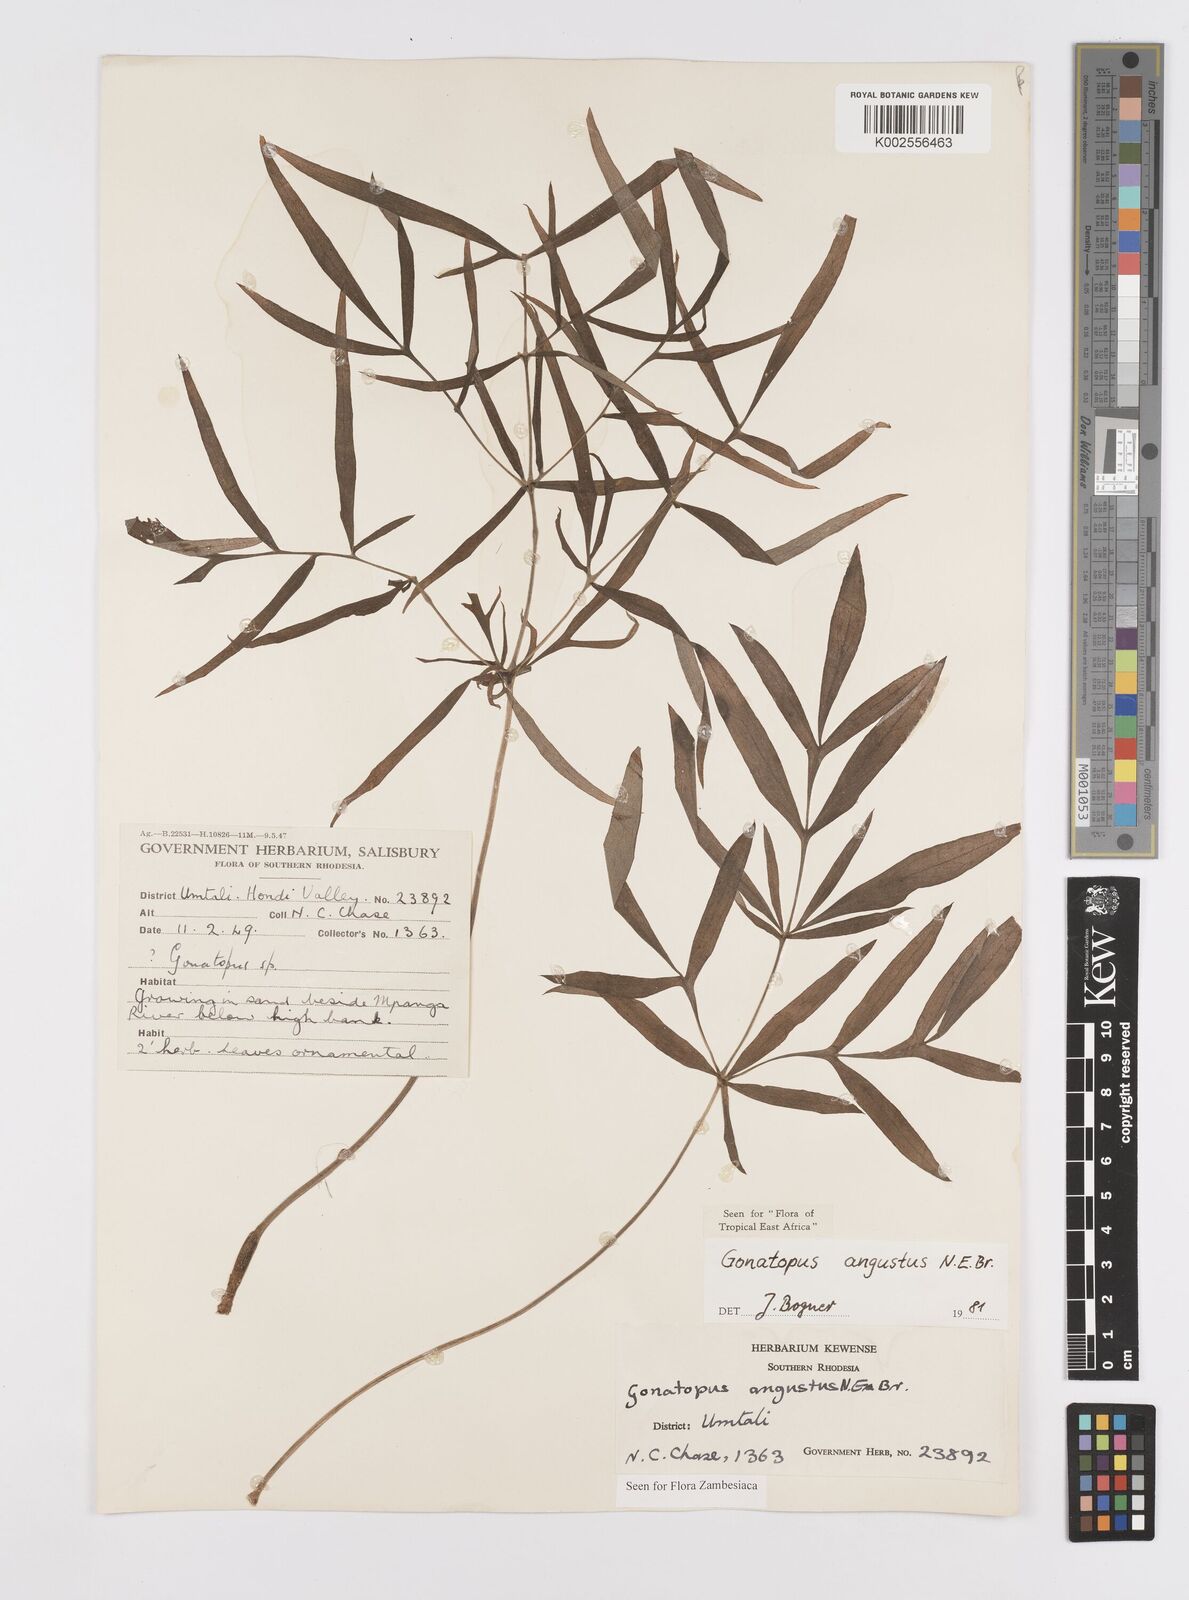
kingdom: Plantae
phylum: Tracheophyta
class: Liliopsida
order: Alismatales
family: Araceae
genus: Gonatopus
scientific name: Gonatopus angustus
